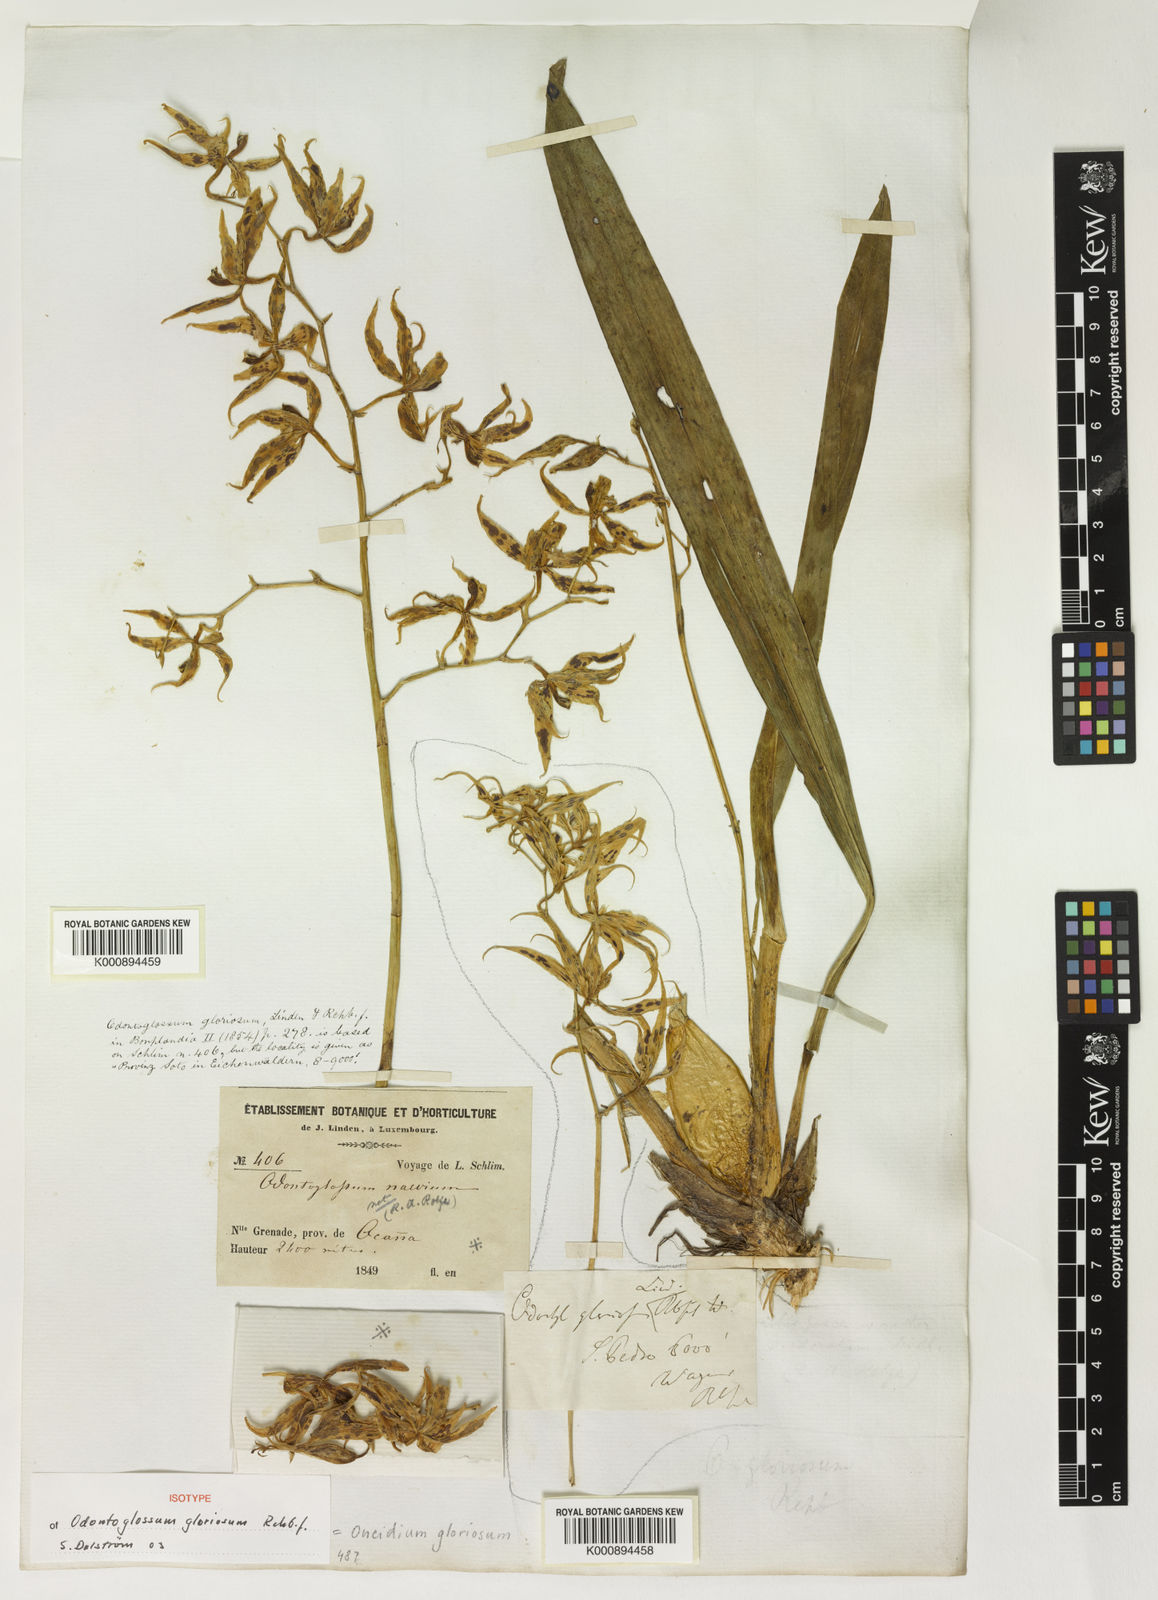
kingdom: Plantae
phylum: Tracheophyta
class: Liliopsida
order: Asparagales
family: Orchidaceae
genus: Oncidium
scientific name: Oncidium gloriosum
